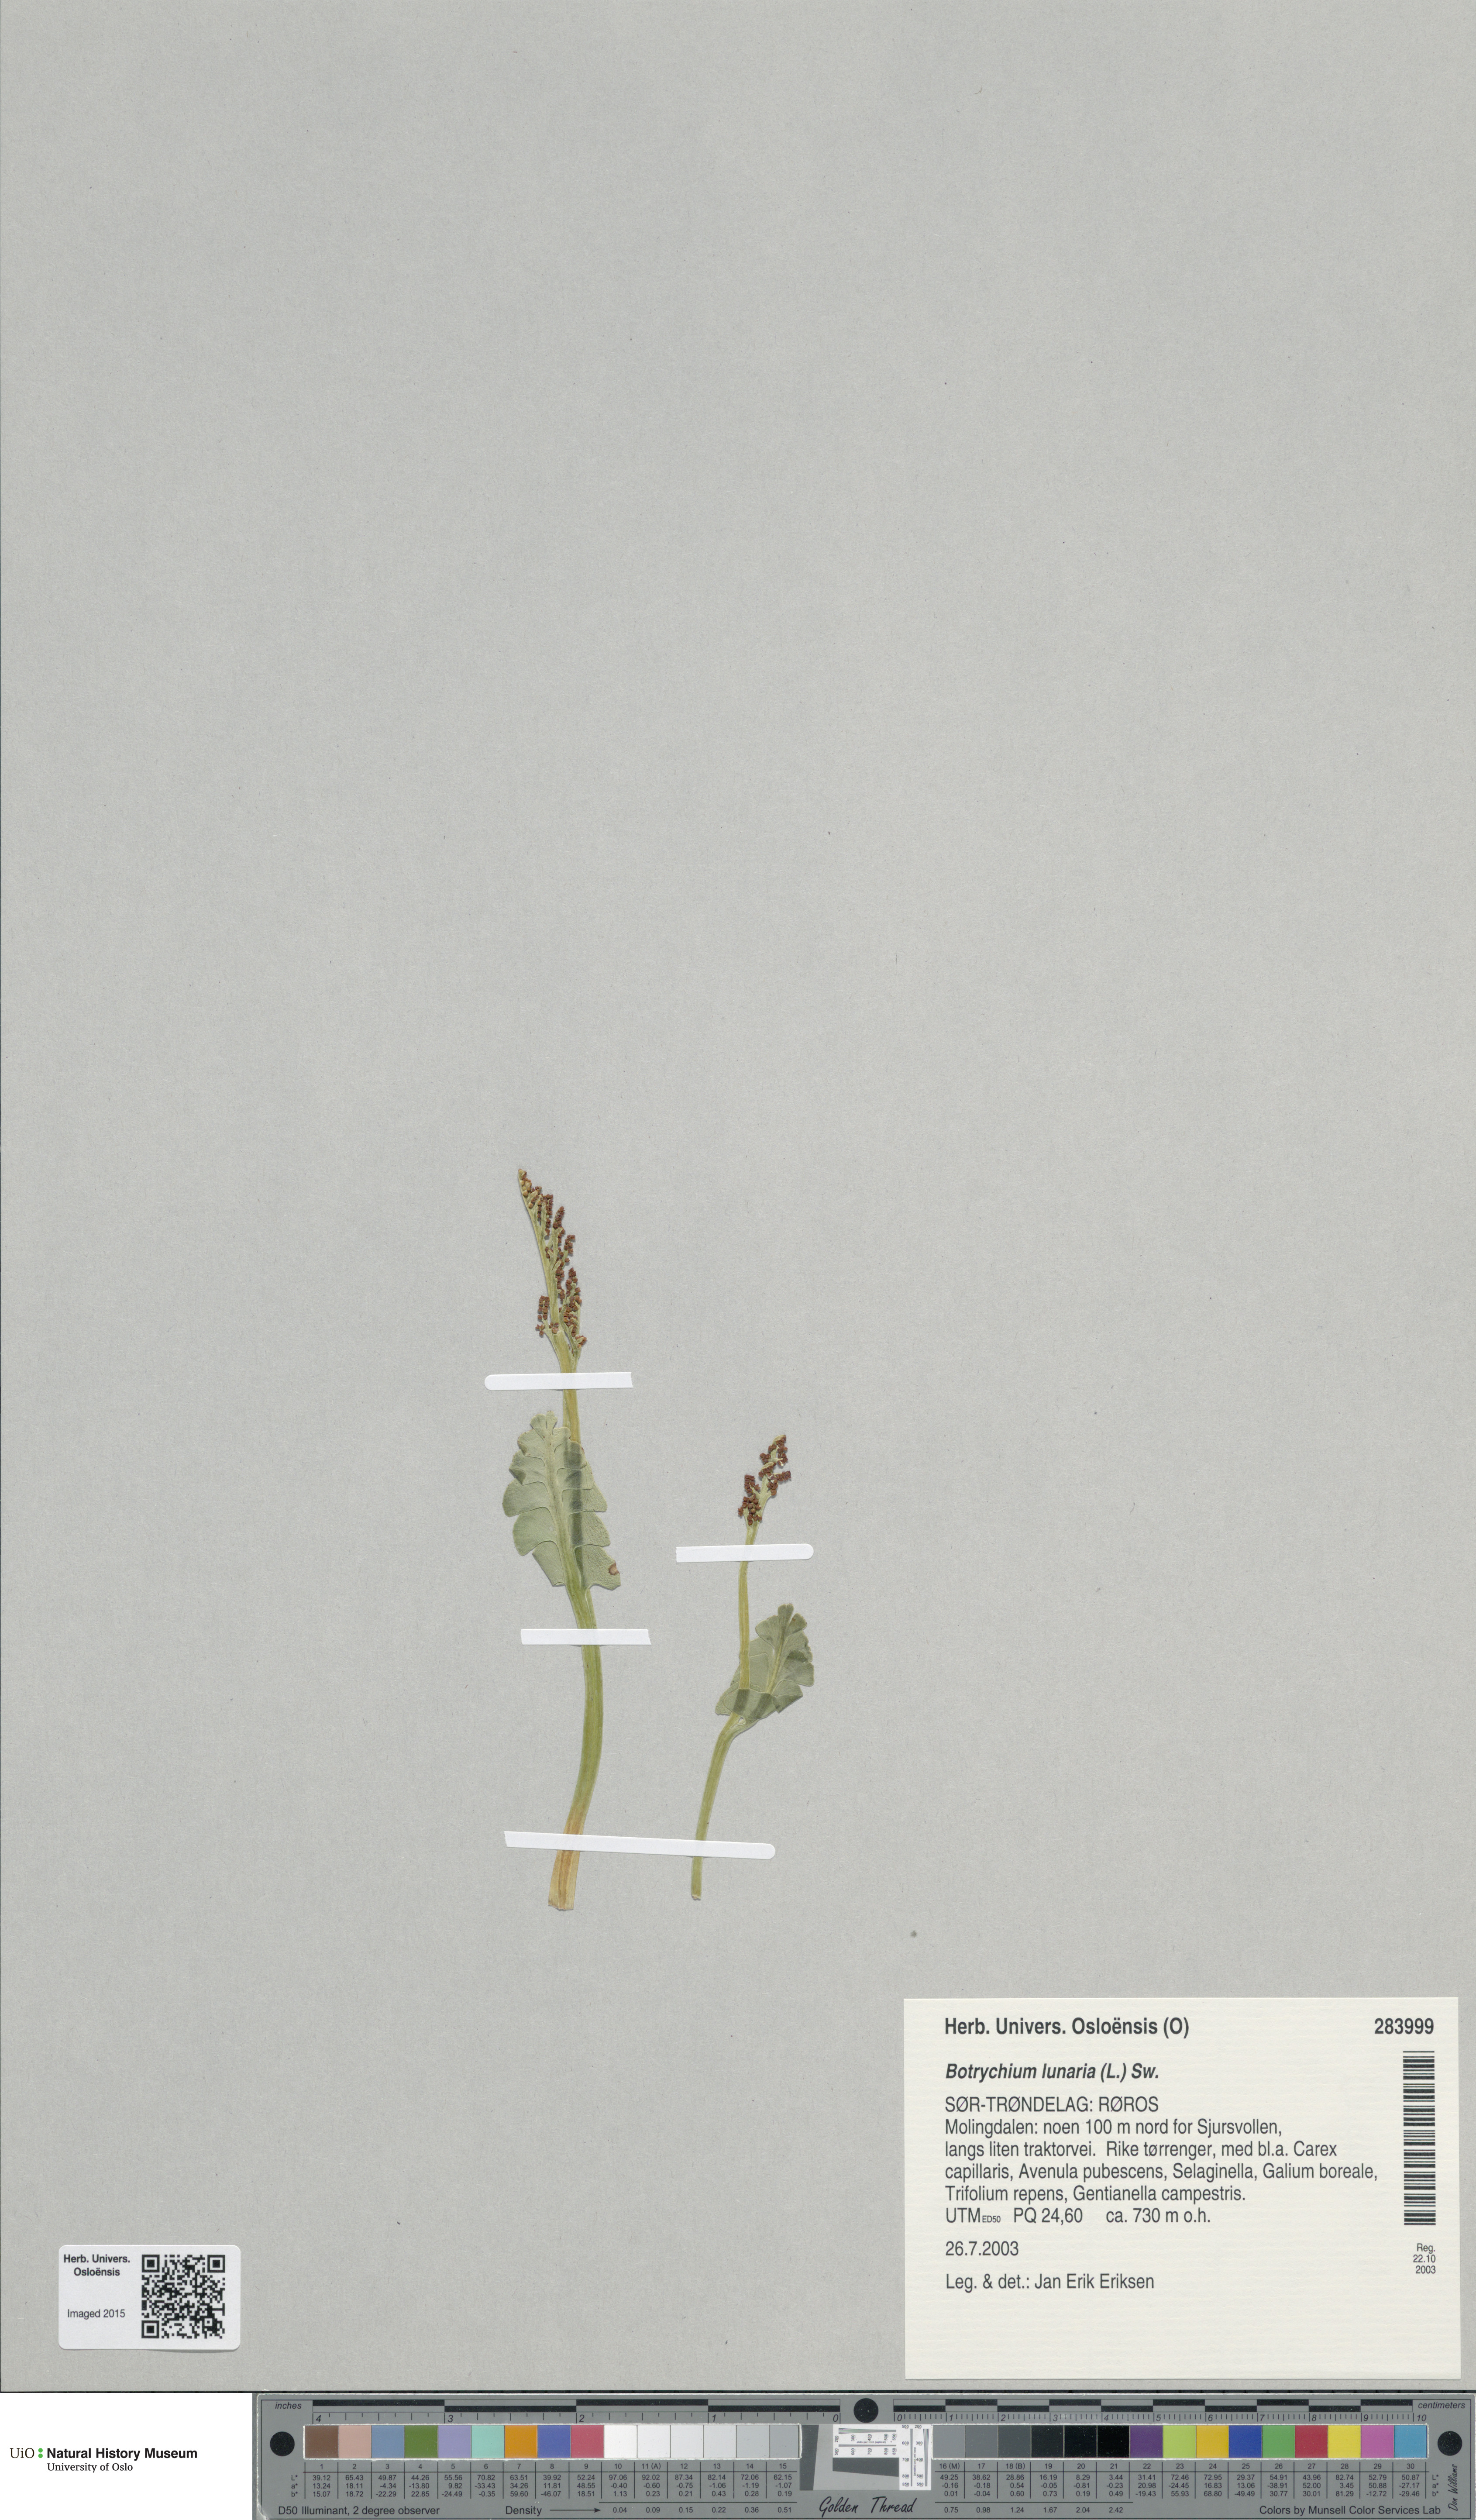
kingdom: Plantae
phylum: Tracheophyta
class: Polypodiopsida
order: Ophioglossales
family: Ophioglossaceae
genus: Botrychium
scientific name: Botrychium lunaria
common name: Moonwort
